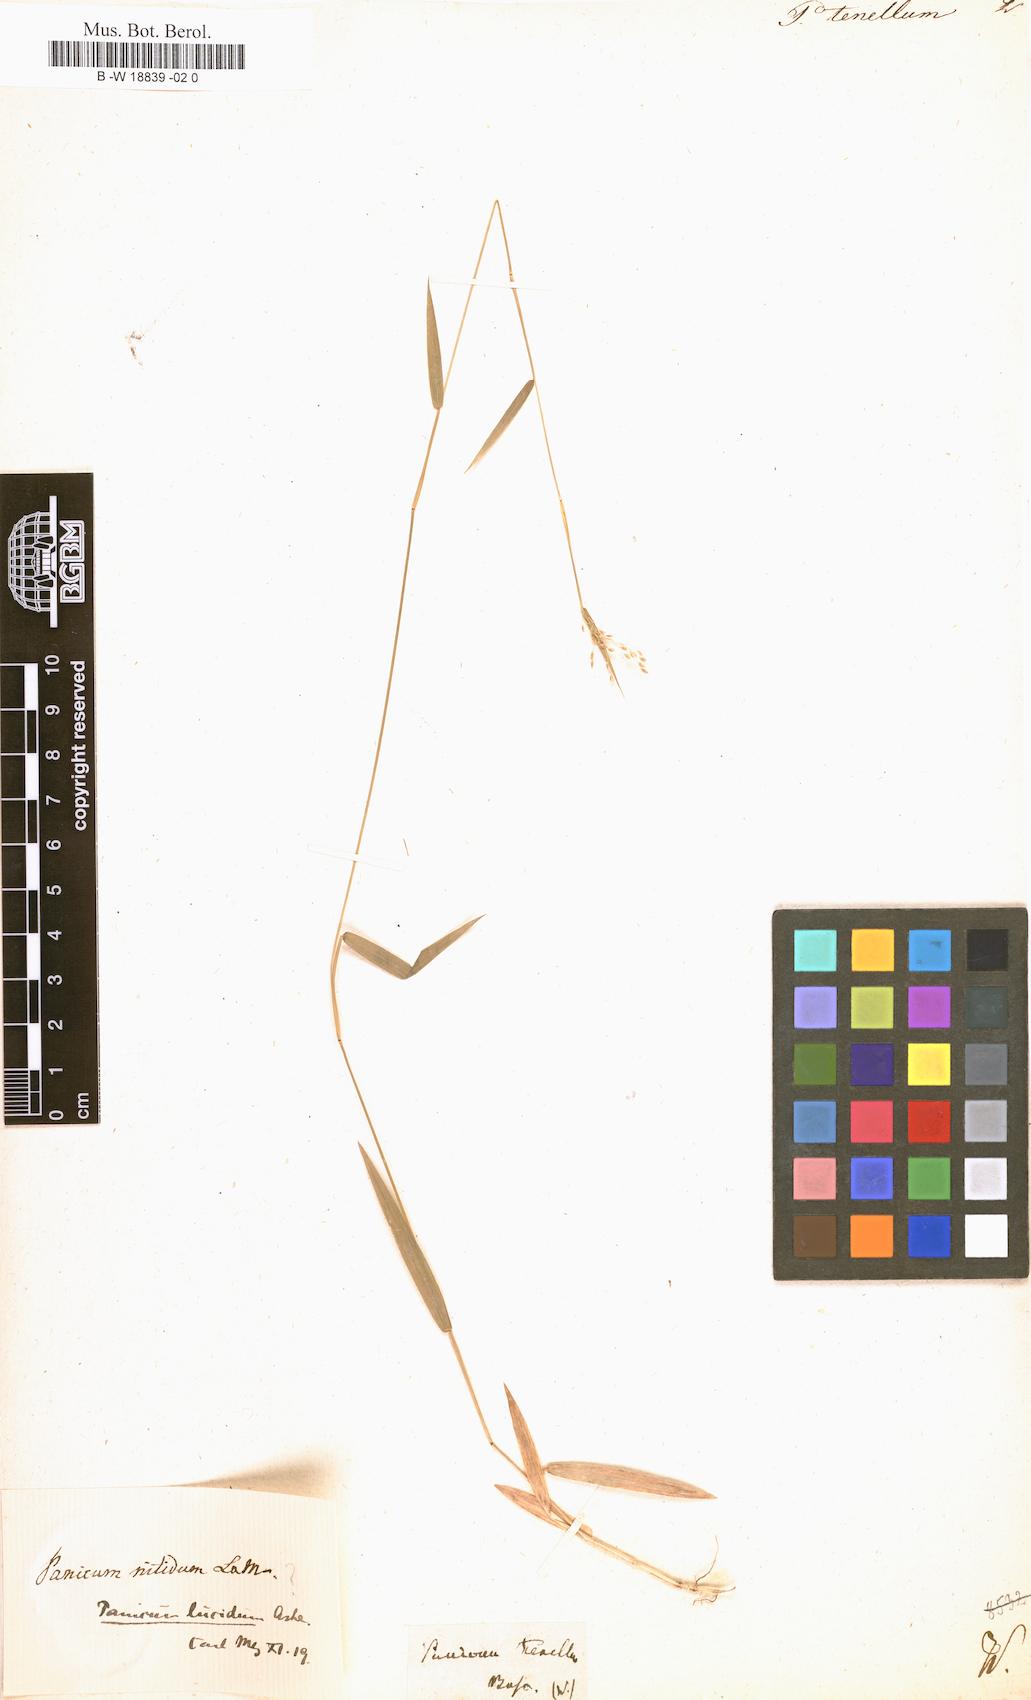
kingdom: Plantae
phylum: Tracheophyta
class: Liliopsida
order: Poales
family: Poaceae
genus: Trichanthecium
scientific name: Trichanthecium tenellum
